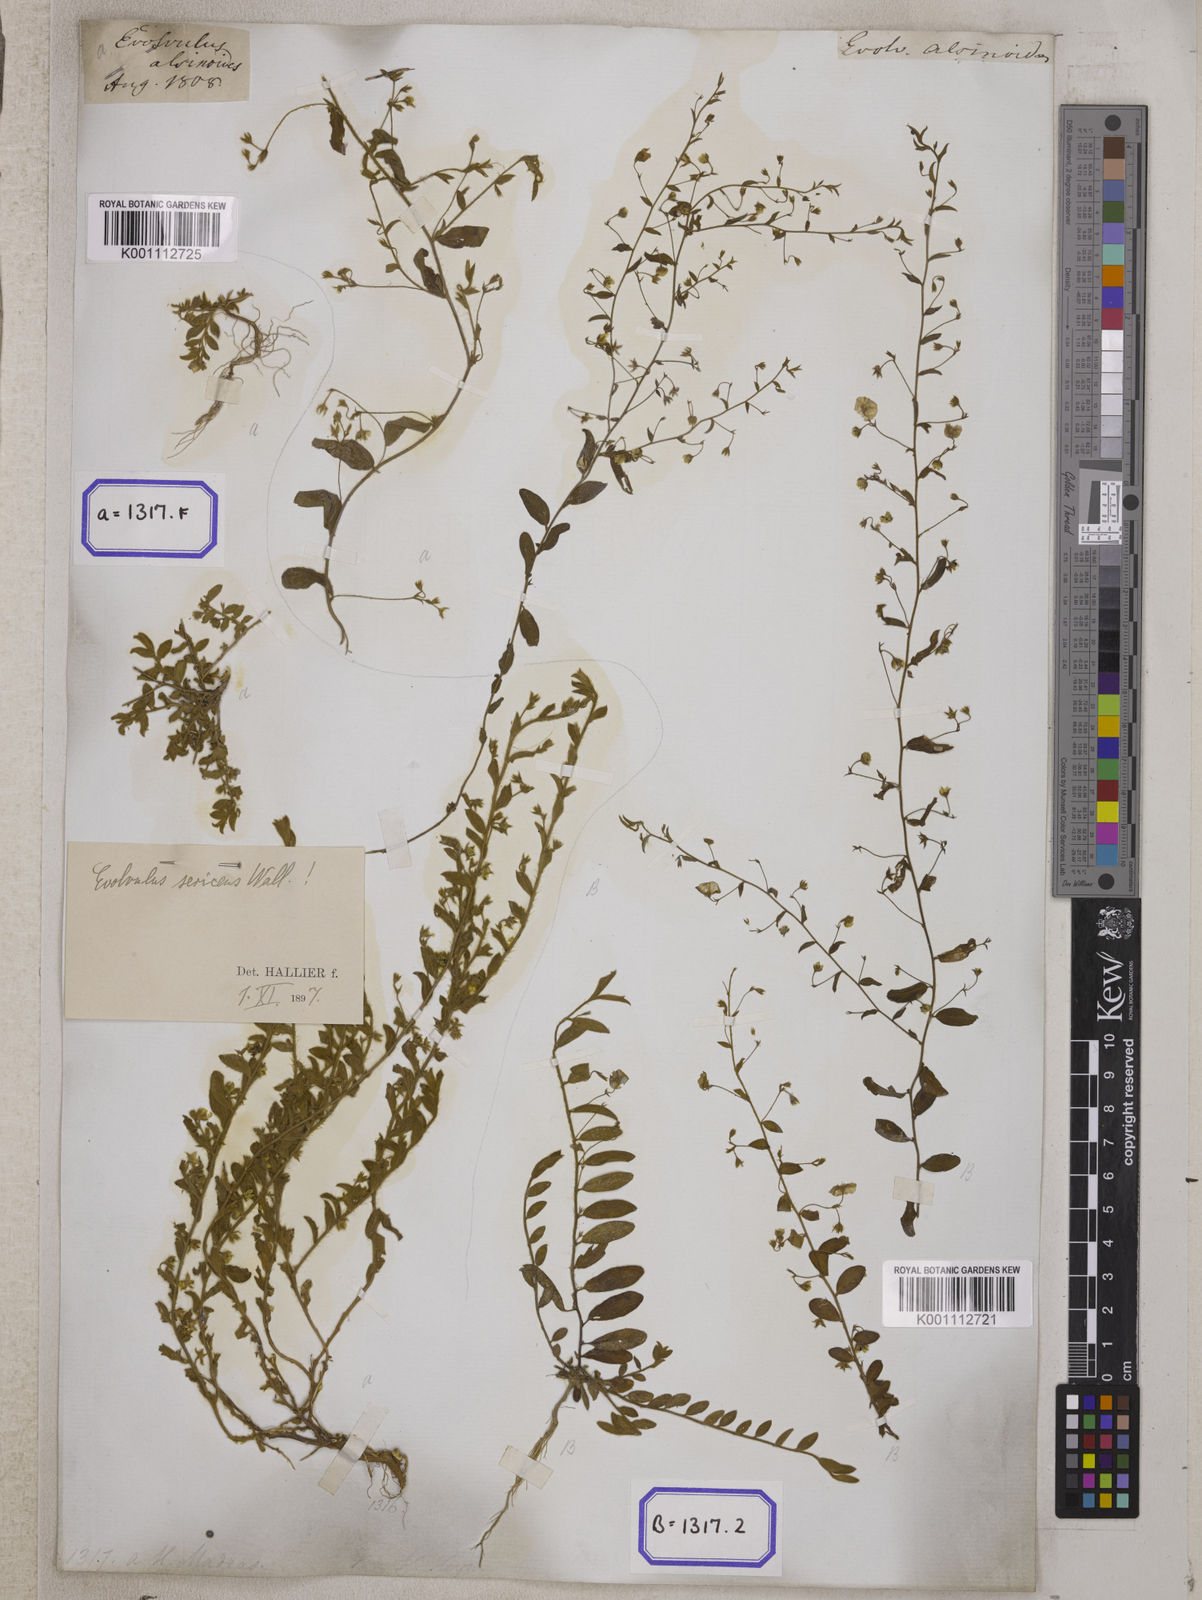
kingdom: Plantae
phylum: Tracheophyta
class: Magnoliopsida
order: Solanales
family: Convolvulaceae
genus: Evolvulus
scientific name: Evolvulus alsinoides
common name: Slender dwarf morning-glory
